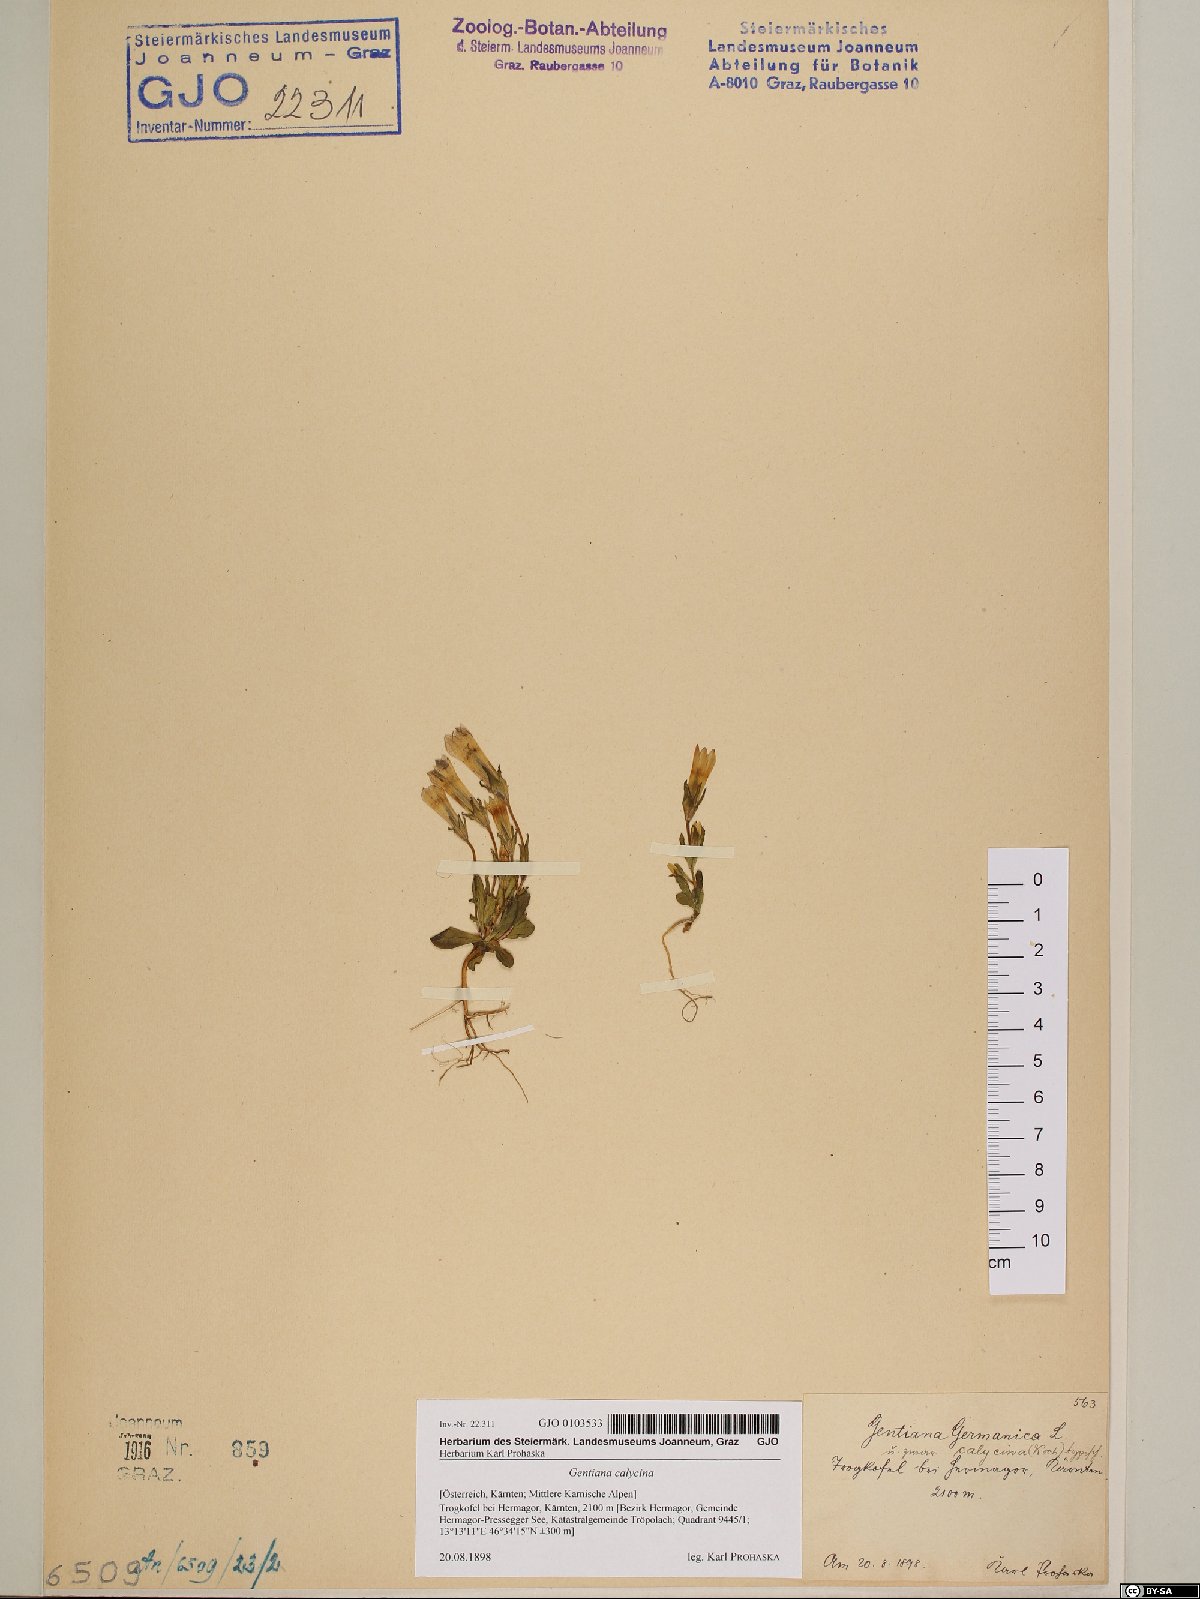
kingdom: Plantae
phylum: Tracheophyta
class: Magnoliopsida
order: Gentianales
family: Gentianaceae
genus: Gentianella
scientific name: Gentianella germanica
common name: Chiltern-gentian
